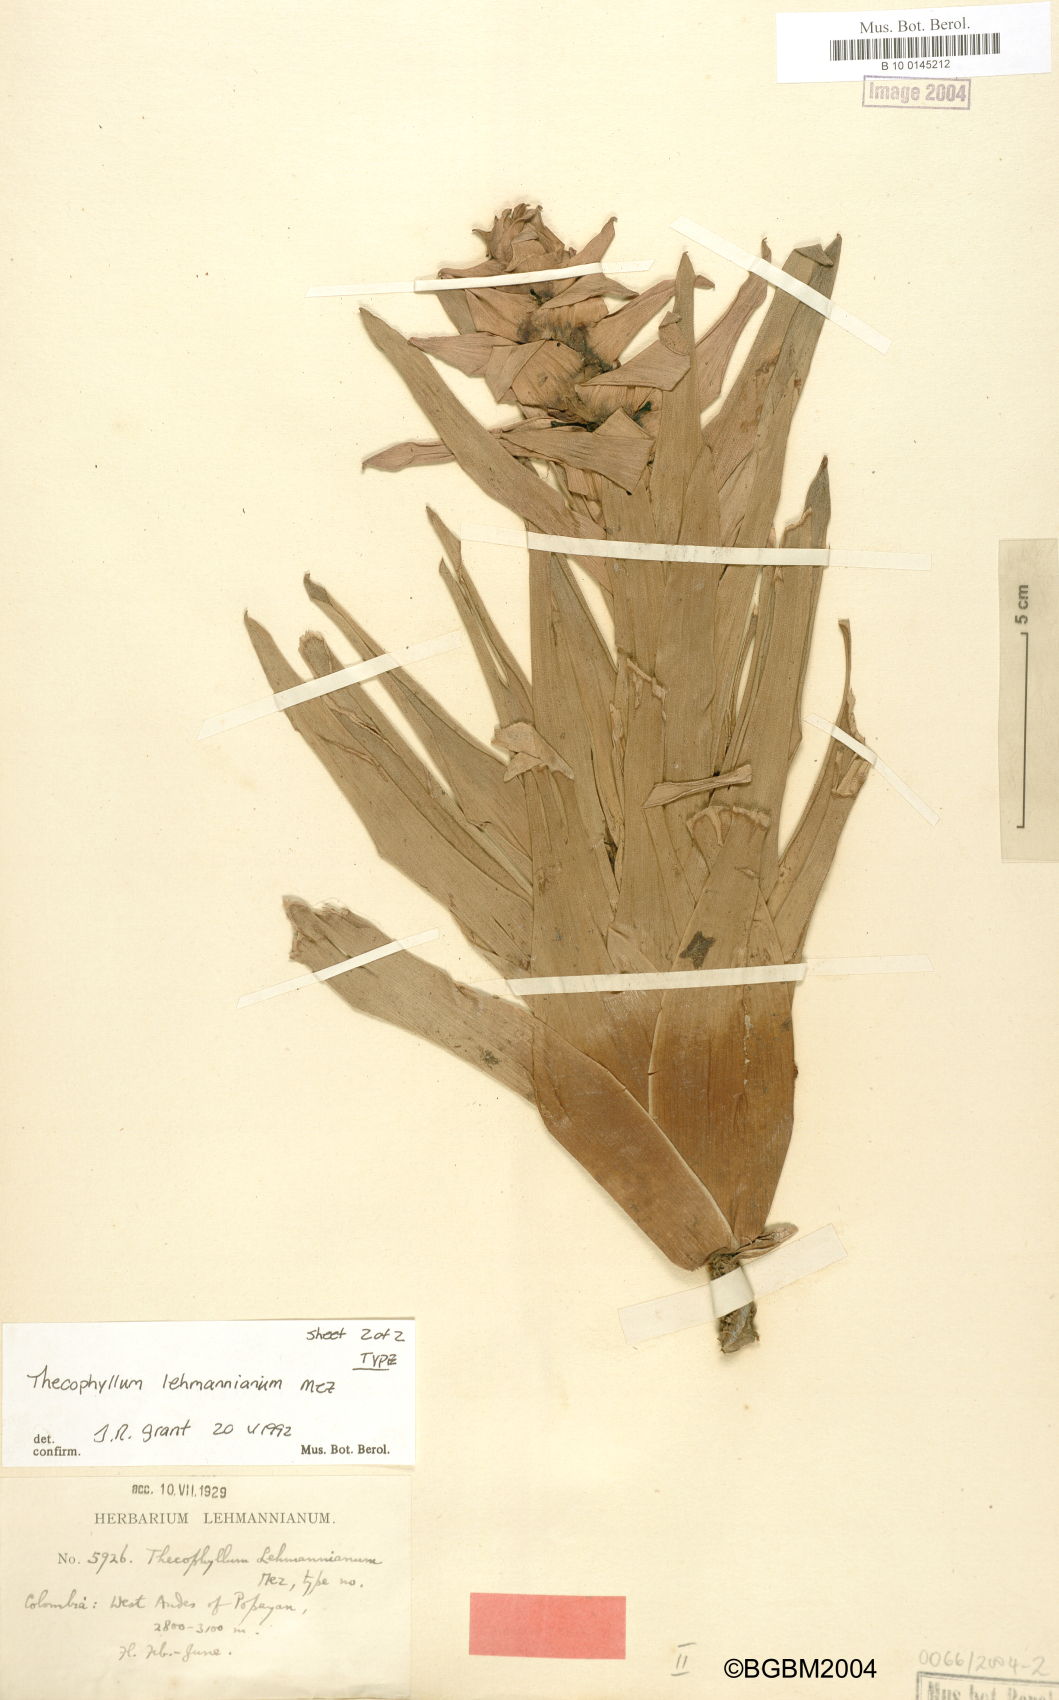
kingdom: Plantae
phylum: Tracheophyta
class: Liliopsida
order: Poales
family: Bromeliaceae
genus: Guzmania
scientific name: Guzmania mosquerae
